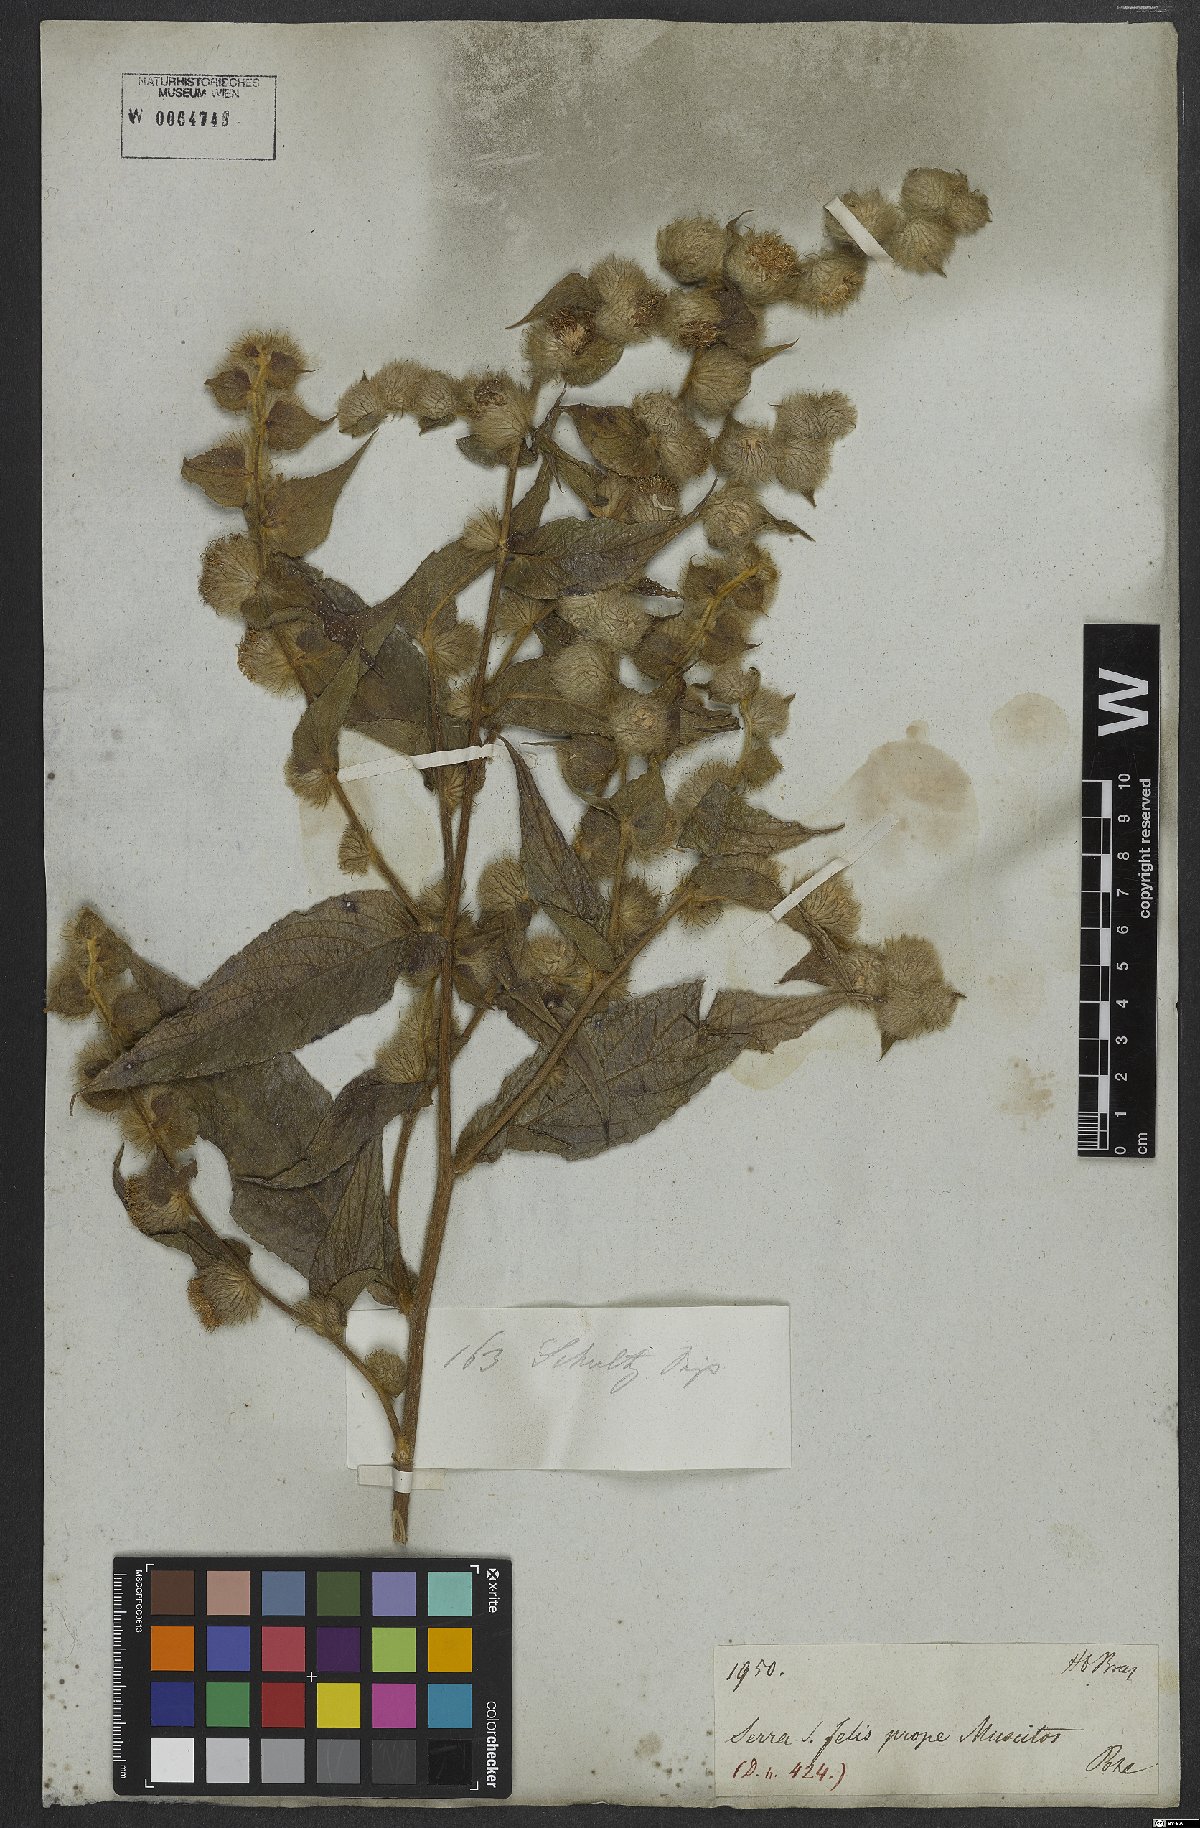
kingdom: Plantae
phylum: Tracheophyta
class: Magnoliopsida
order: Asterales
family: Asteraceae
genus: Lepidaploa
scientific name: Lepidaploa eriolepis
